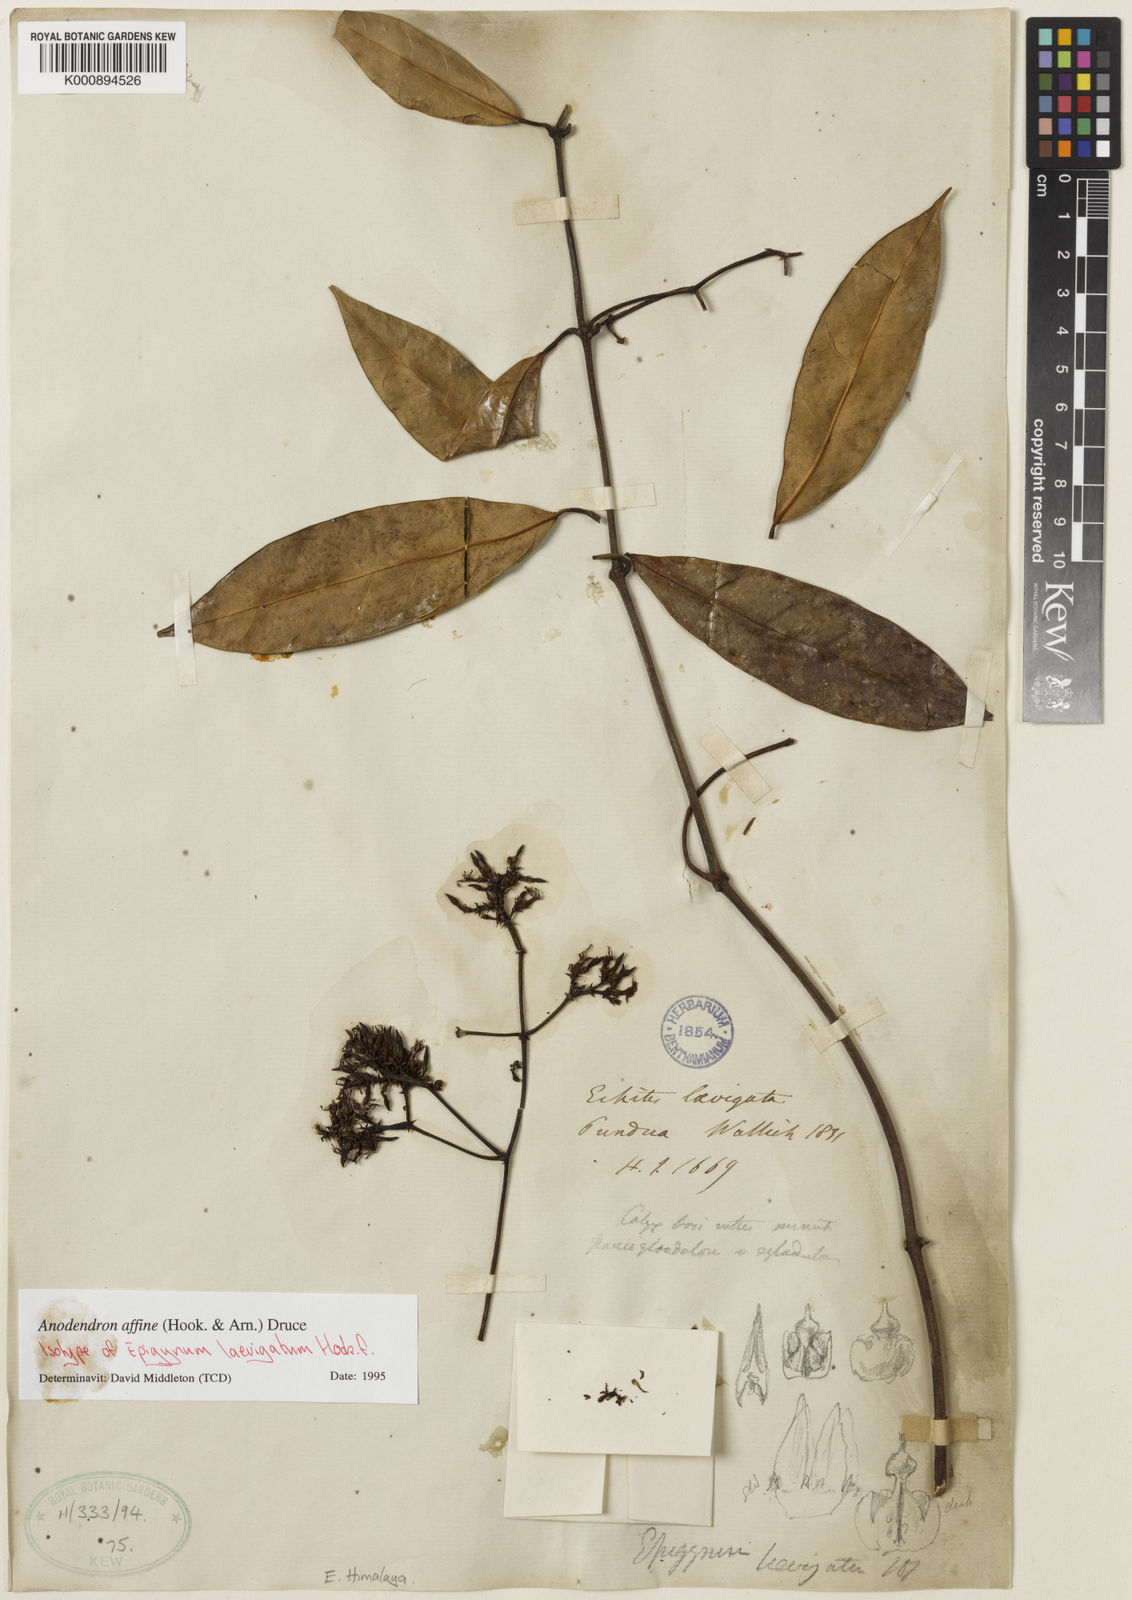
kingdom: Plantae
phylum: Tracheophyta
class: Magnoliopsida
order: Gentianales
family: Apocynaceae
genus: Anodendron
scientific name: Anodendron affine
